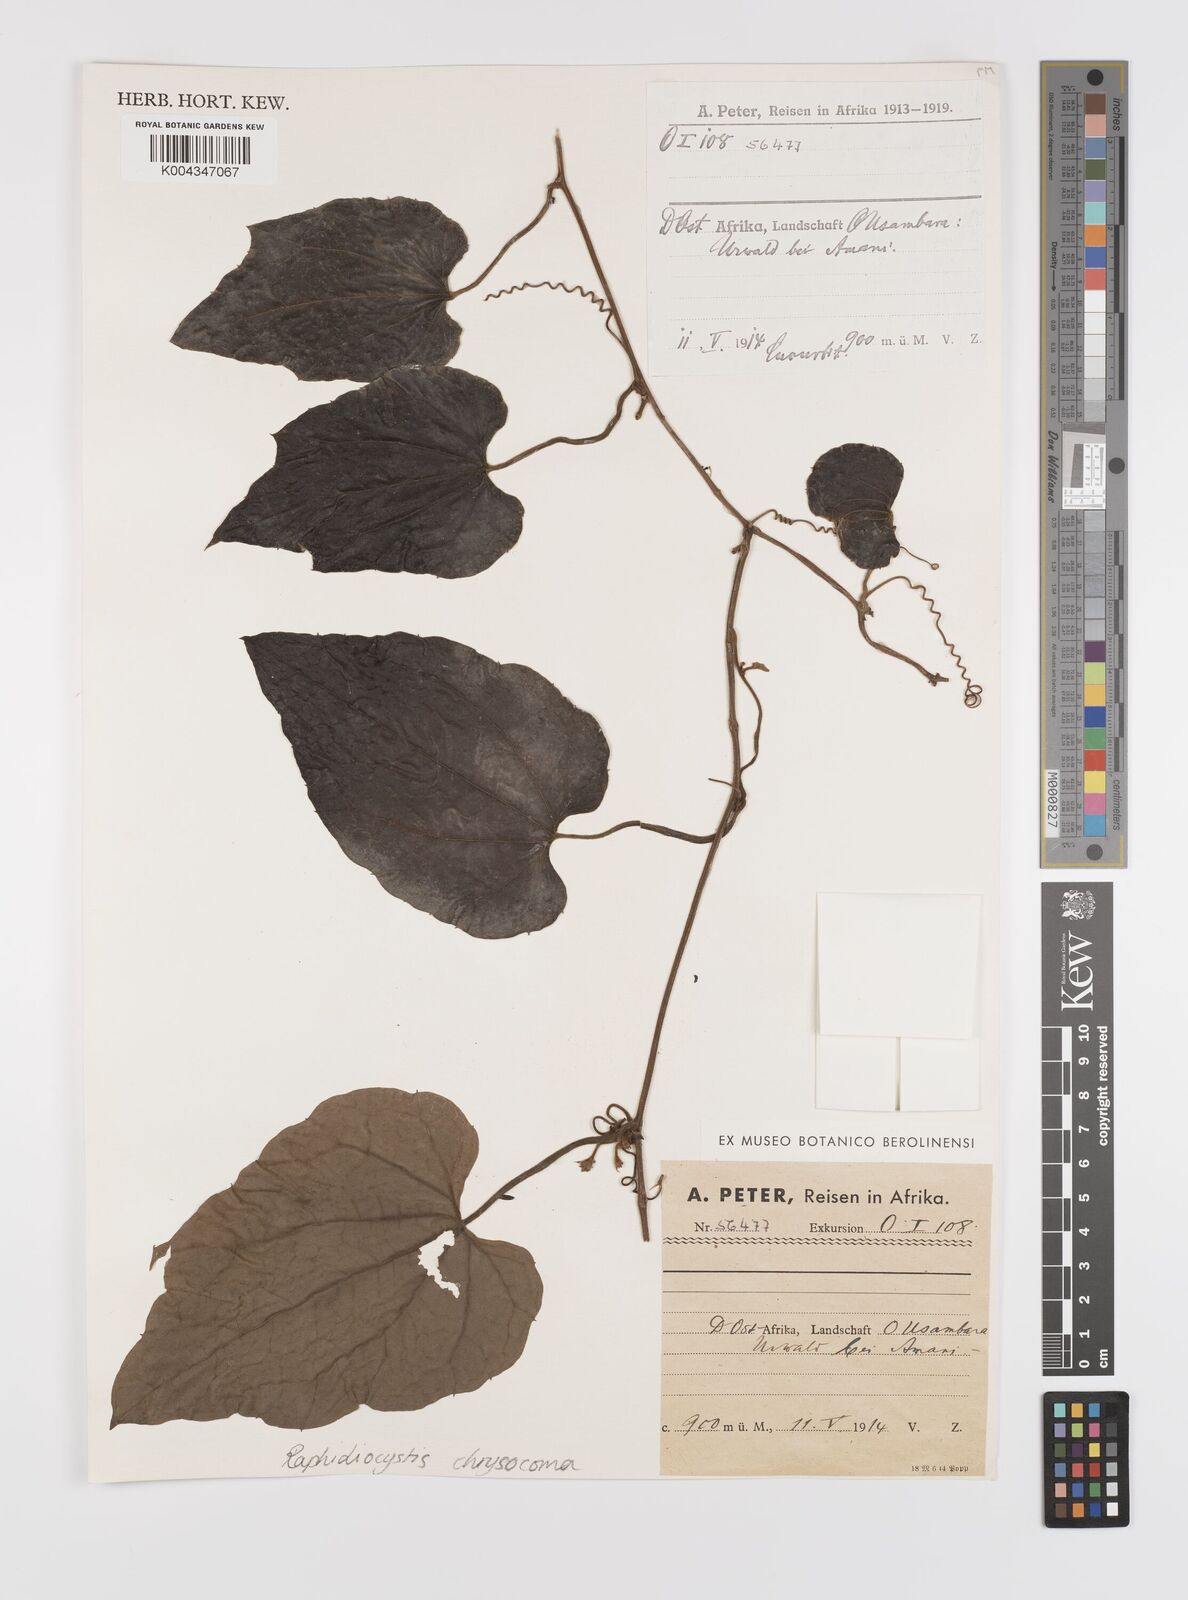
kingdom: Plantae
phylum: Tracheophyta
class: Magnoliopsida
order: Cucurbitales
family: Cucurbitaceae
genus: Raphidiocystis
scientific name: Raphidiocystis chrysocoma
